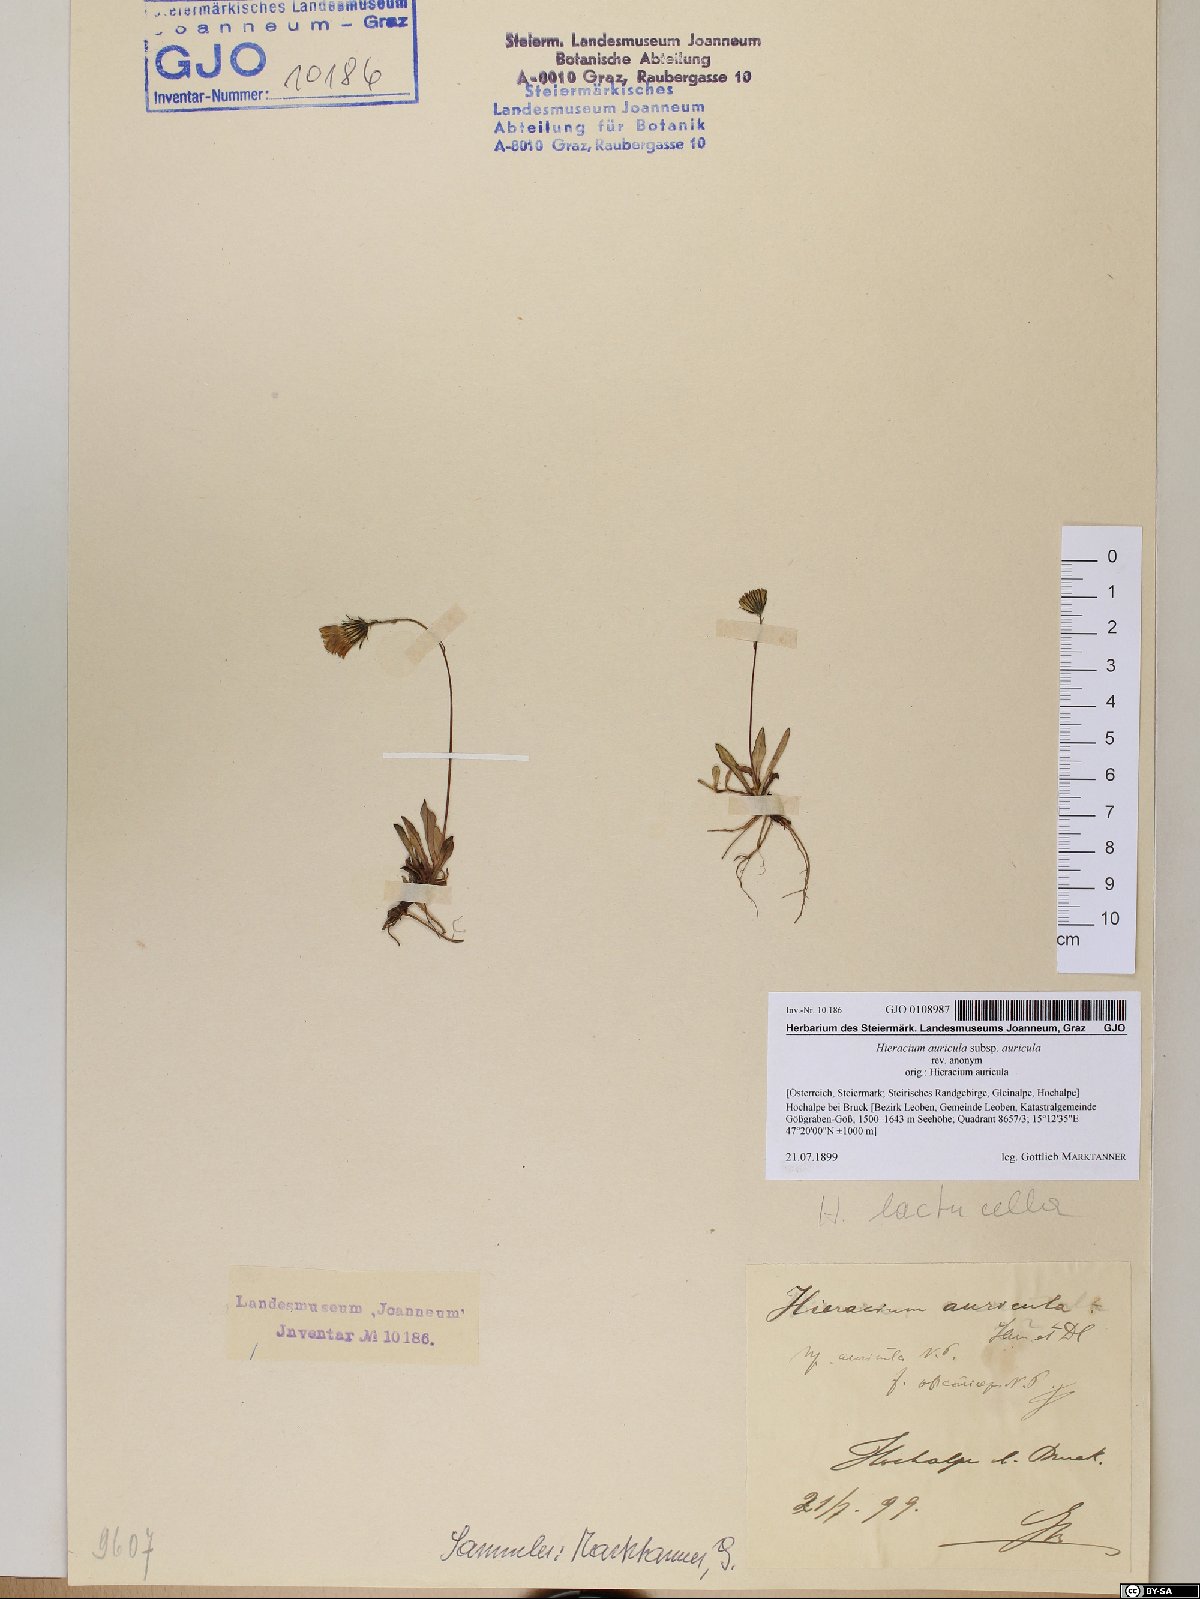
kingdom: Plantae
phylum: Tracheophyta
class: Magnoliopsida
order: Asterales
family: Asteraceae
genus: Hieracium
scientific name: Hieracium auricula
